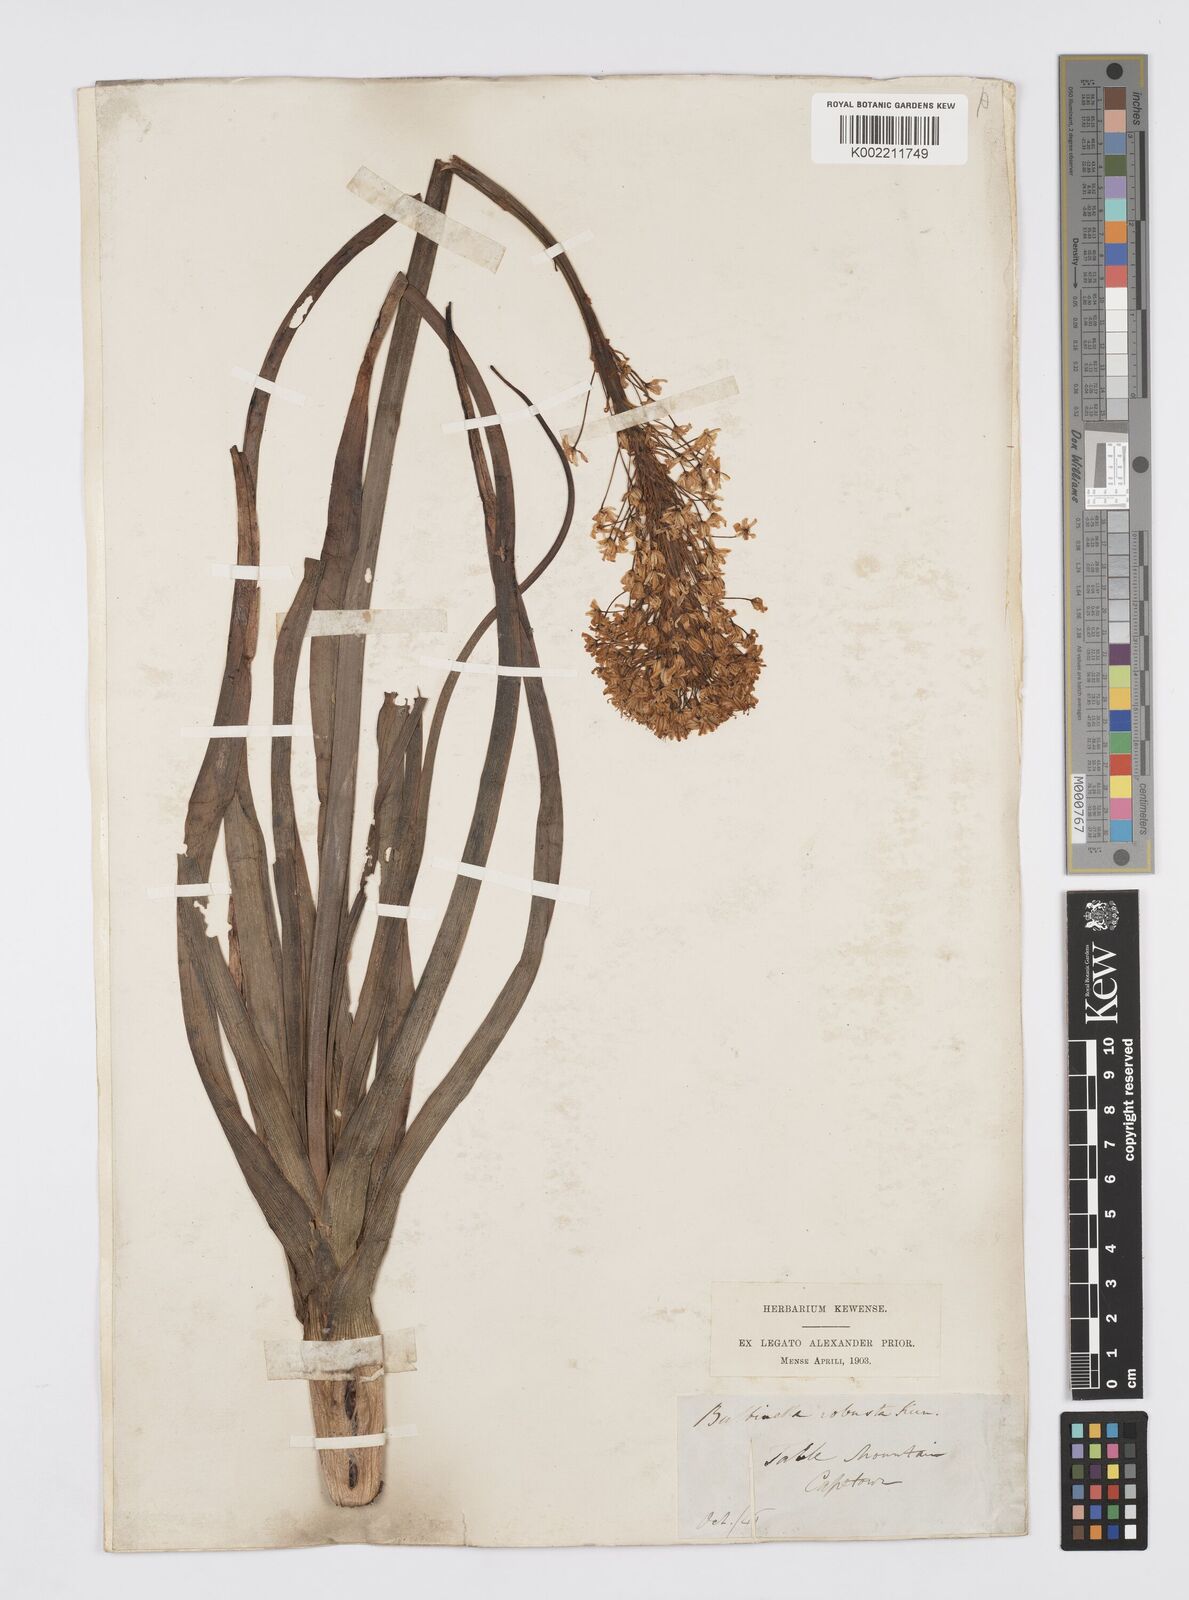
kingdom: Plantae
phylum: Tracheophyta
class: Liliopsida
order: Asparagales
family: Asphodelaceae
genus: Bulbinella
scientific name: Bulbinella nutans
